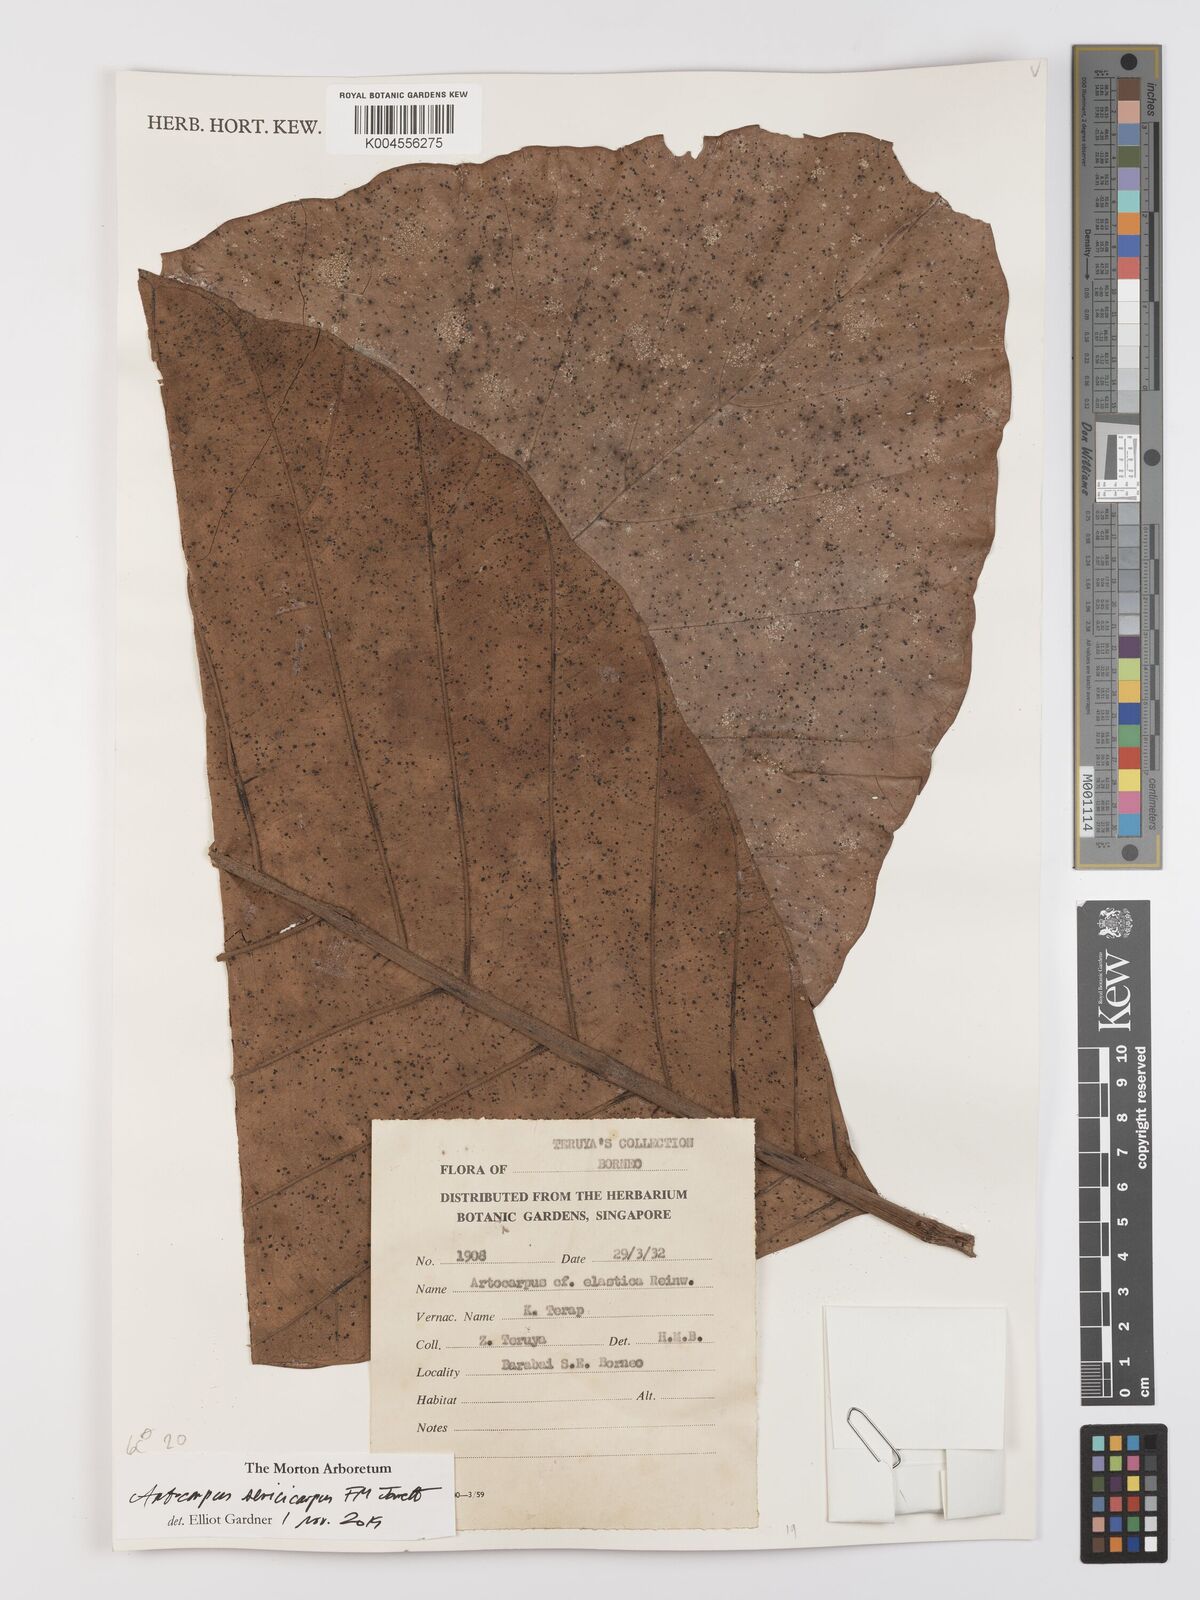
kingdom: Plantae
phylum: Tracheophyta
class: Magnoliopsida
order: Rosales
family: Moraceae
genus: Artocarpus
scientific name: Artocarpus sericicarpus
